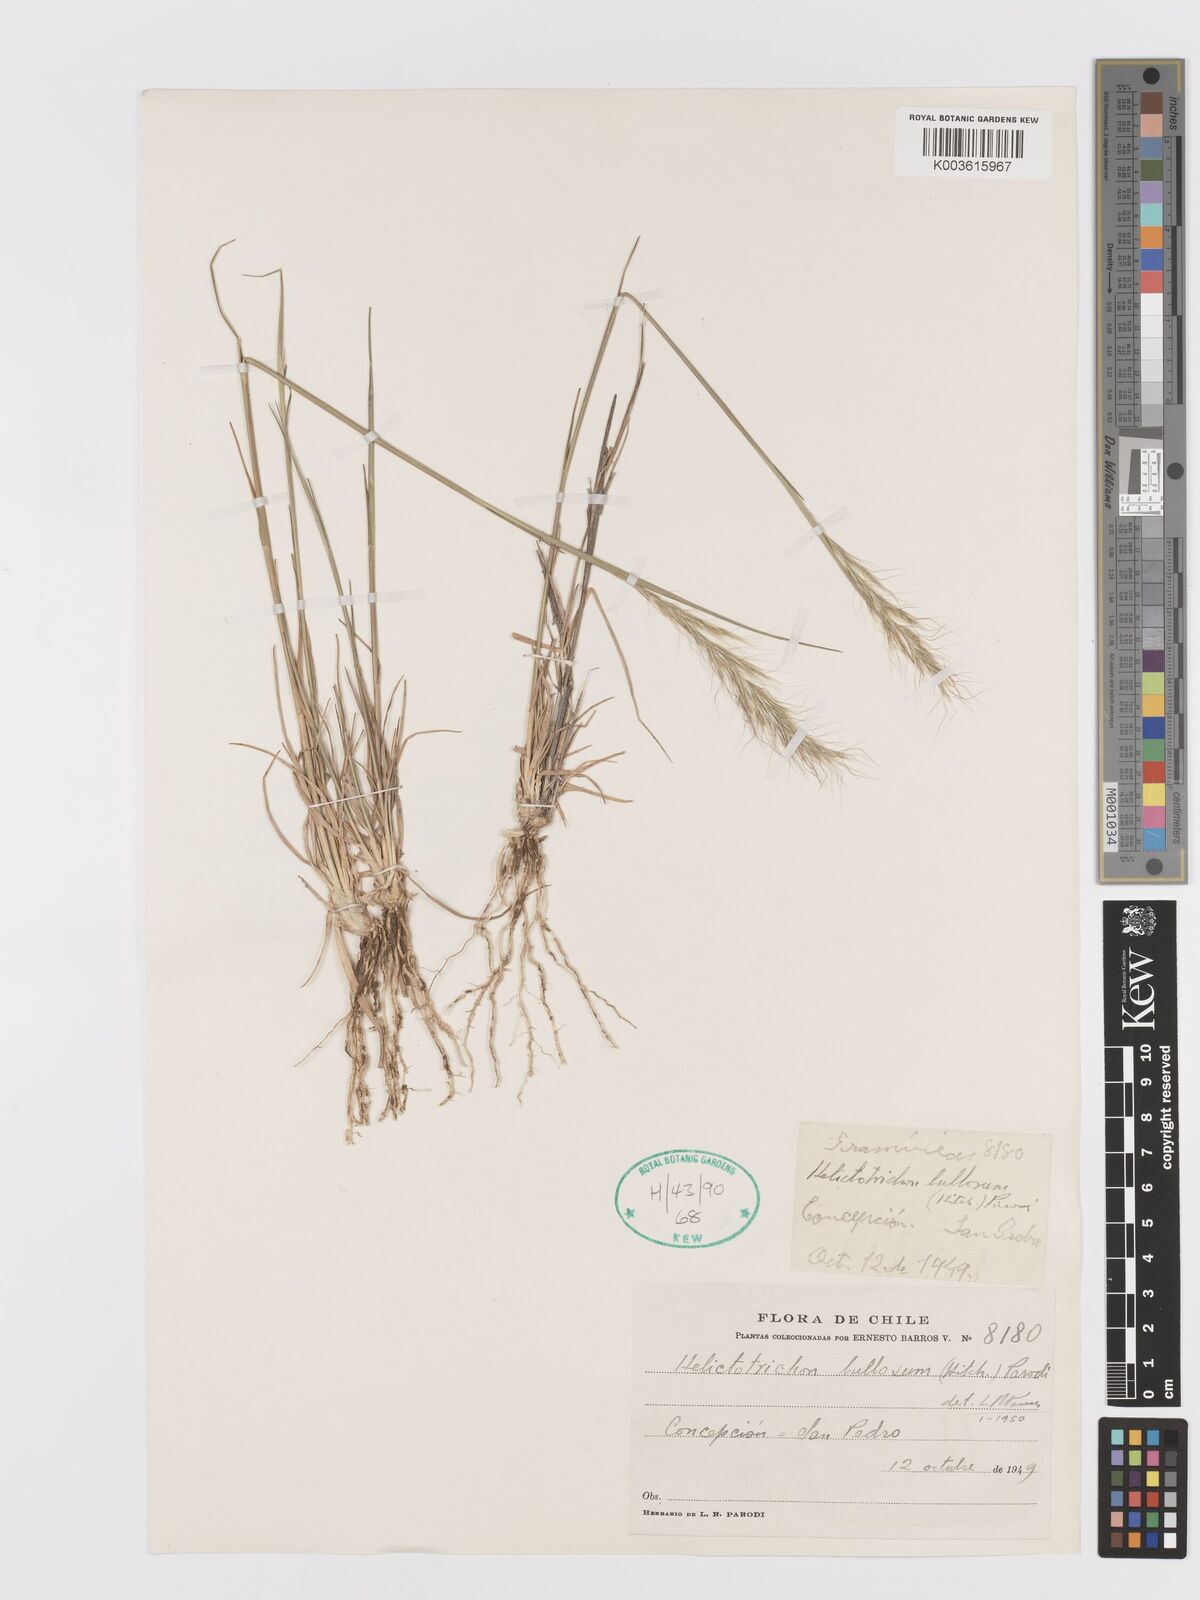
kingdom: Plantae
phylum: Tracheophyta
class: Liliopsida
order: Poales
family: Poaceae
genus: Trisetum
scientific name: Trisetum
